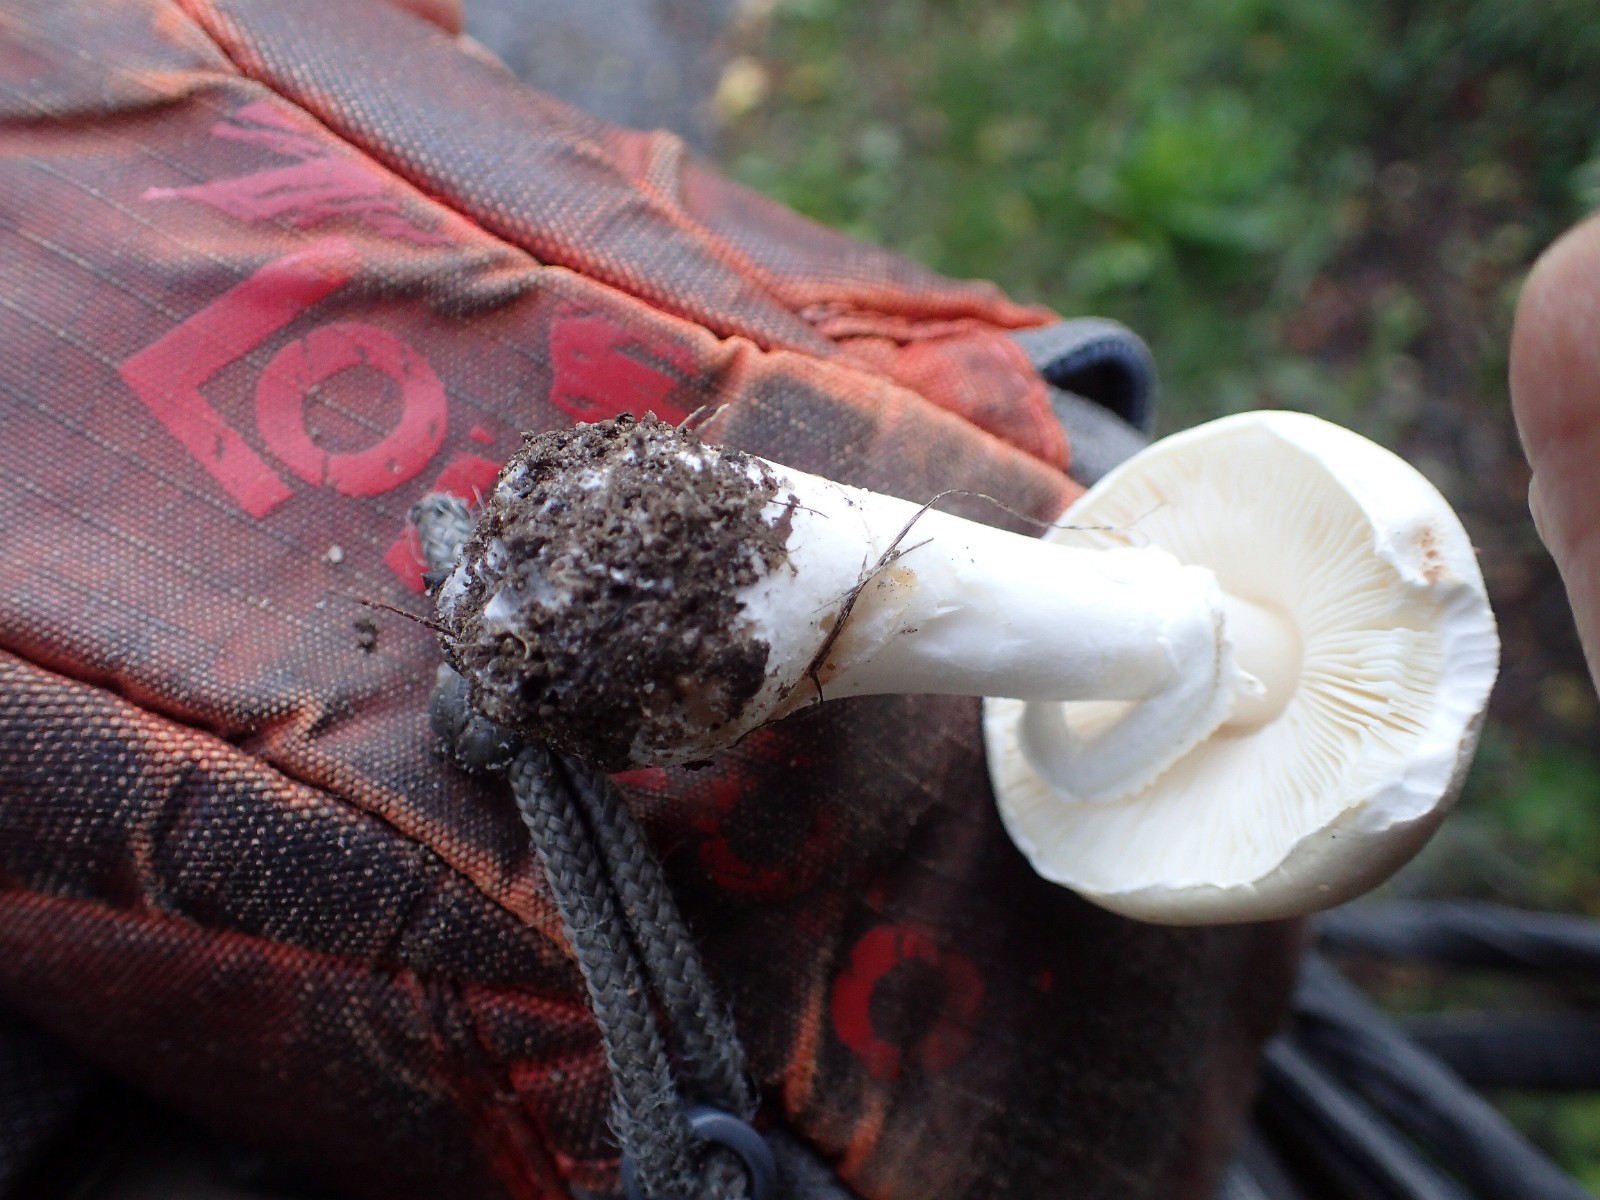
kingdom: Fungi
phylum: Basidiomycota
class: Agaricomycetes
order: Agaricales
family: Agaricaceae
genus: Leucoagaricus
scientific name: Leucoagaricus leucothites
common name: rosabladet silkehat
